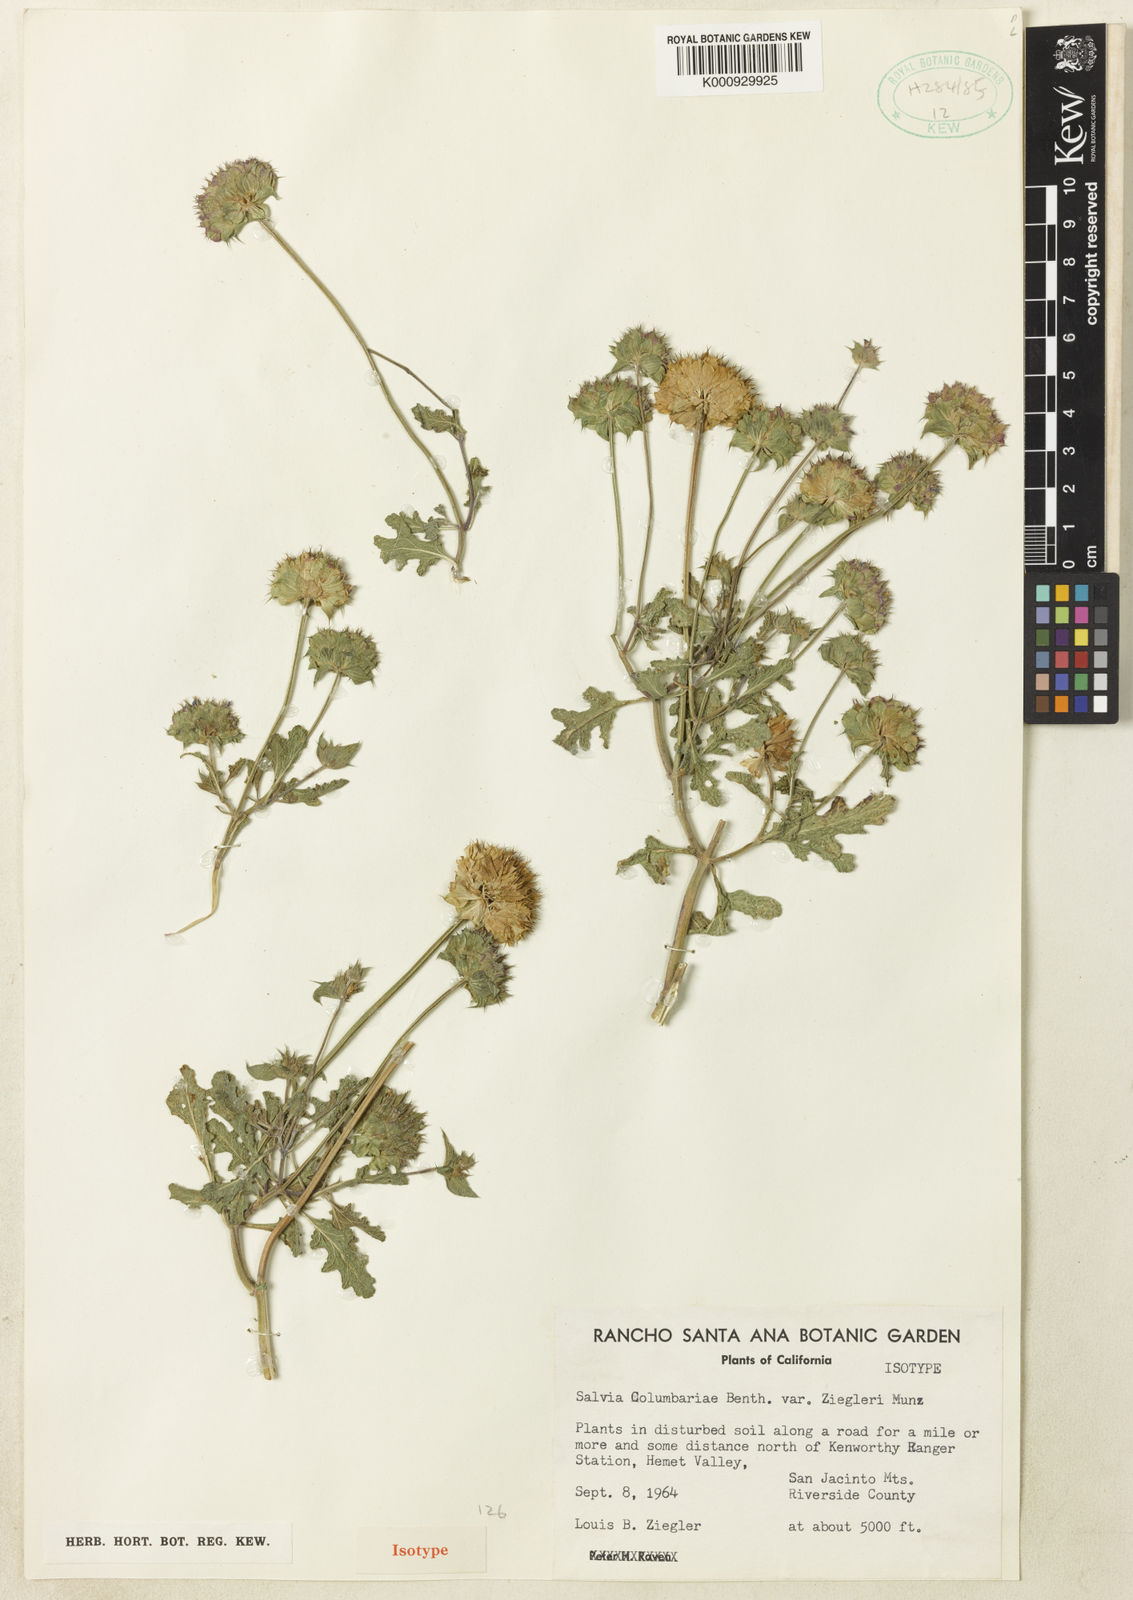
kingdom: Plantae
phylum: Tracheophyta
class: Magnoliopsida
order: Lamiales
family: Lamiaceae
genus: Salvia
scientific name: Salvia columbariae
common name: Chia
